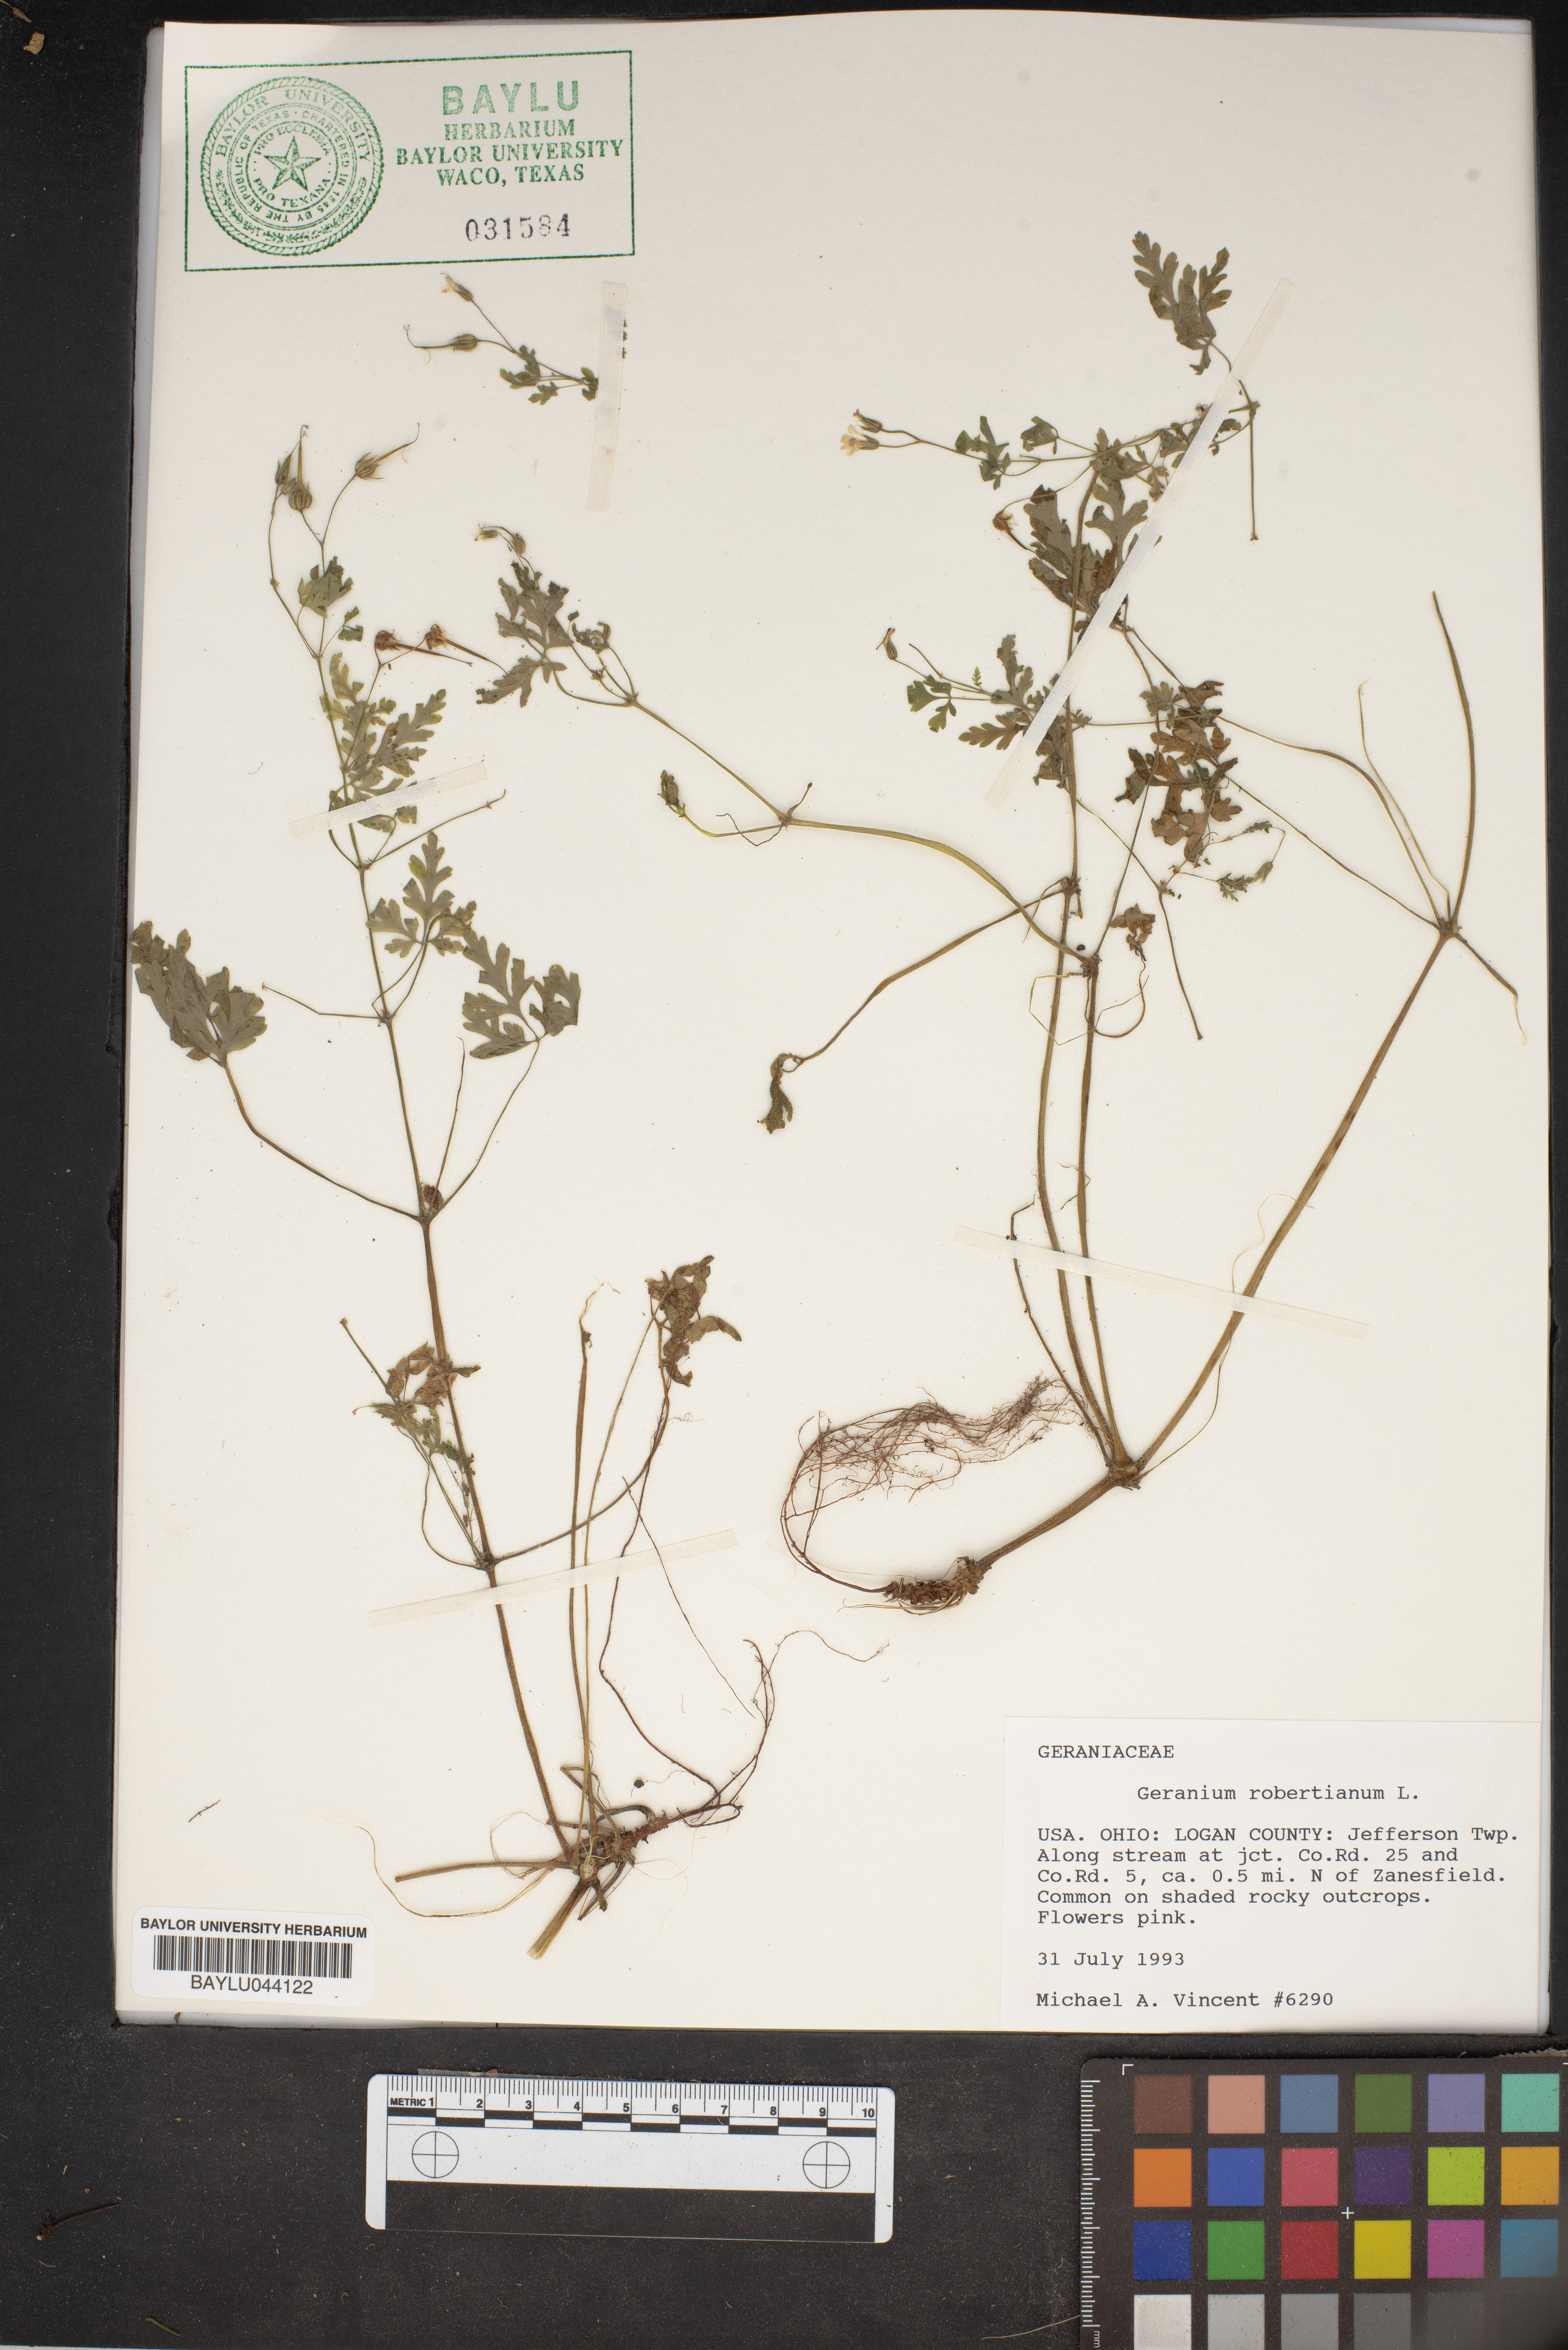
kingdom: Plantae
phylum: Tracheophyta
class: Magnoliopsida
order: Geraniales
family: Geraniaceae
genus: Geranium
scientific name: Geranium robertianum
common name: Herb-robert
